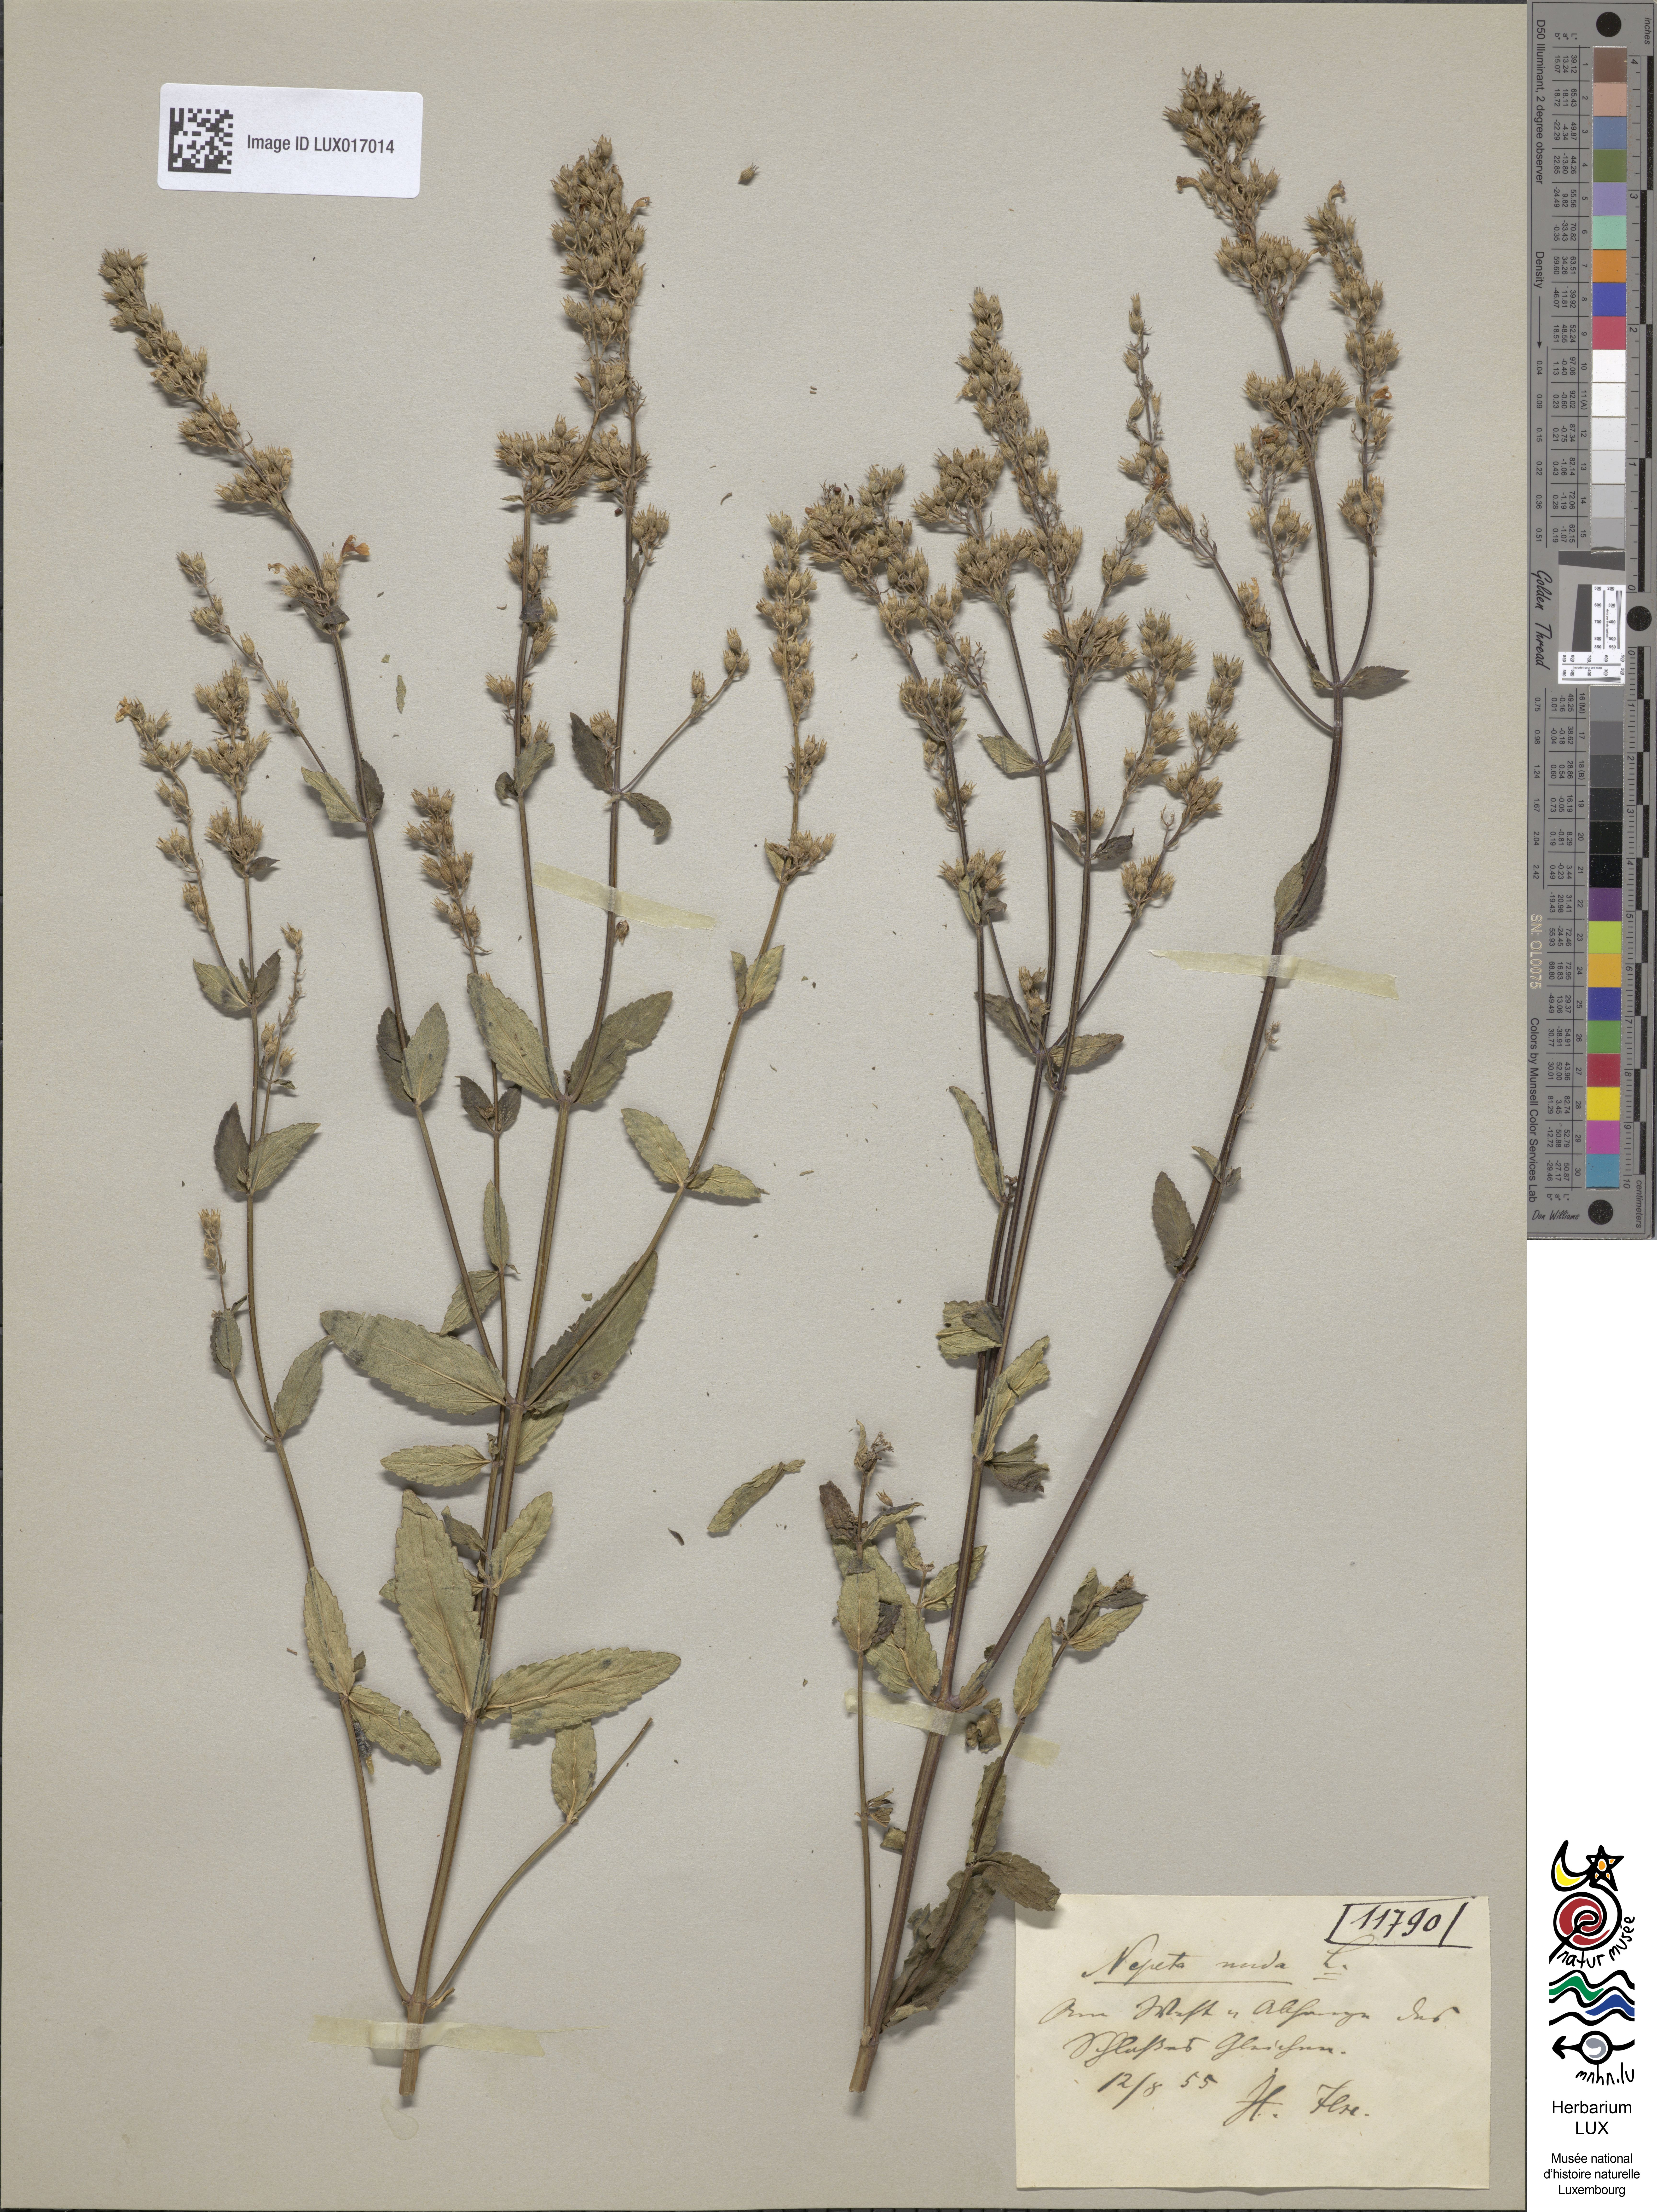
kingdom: Plantae
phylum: Tracheophyta
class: Magnoliopsida
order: Lamiales
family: Lamiaceae
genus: Nepeta
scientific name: Nepeta nuda
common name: Hairless catmint
